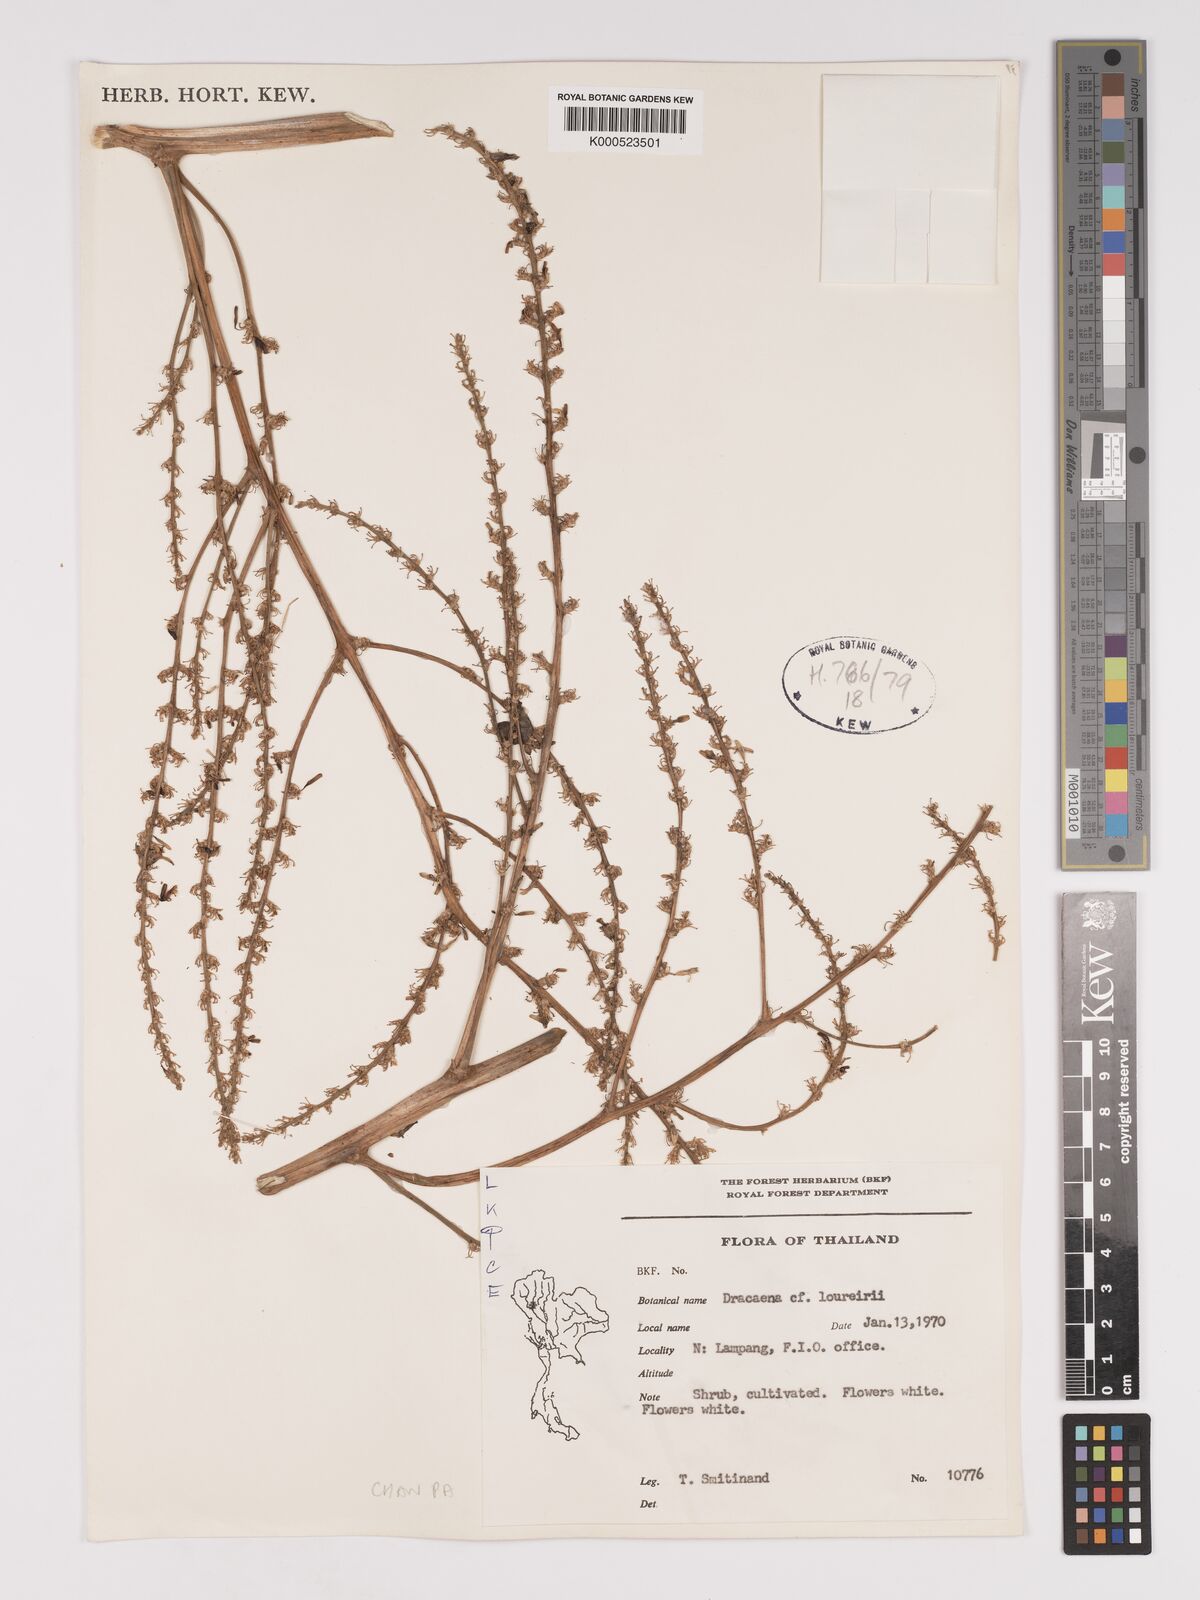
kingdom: Plantae
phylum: Tracheophyta
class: Liliopsida
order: Asparagales
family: Asparagaceae
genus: Dracaena
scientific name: Dracaena cochinchinensis
